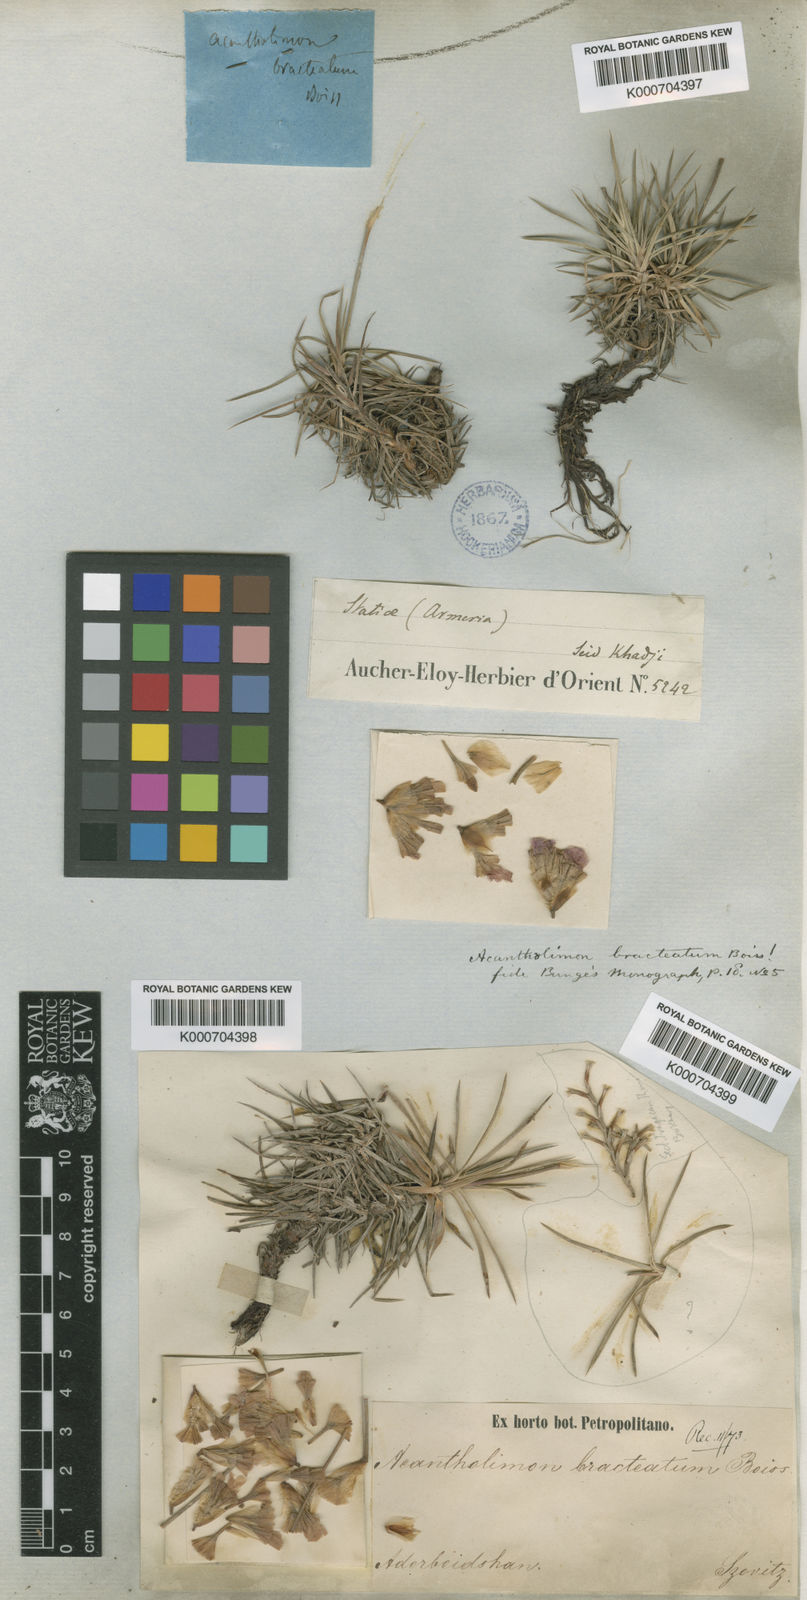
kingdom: Plantae
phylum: Tracheophyta
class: Magnoliopsida
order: Caryophyllales
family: Plumbaginaceae
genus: Acantholimon
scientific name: Acantholimon bracteatum
